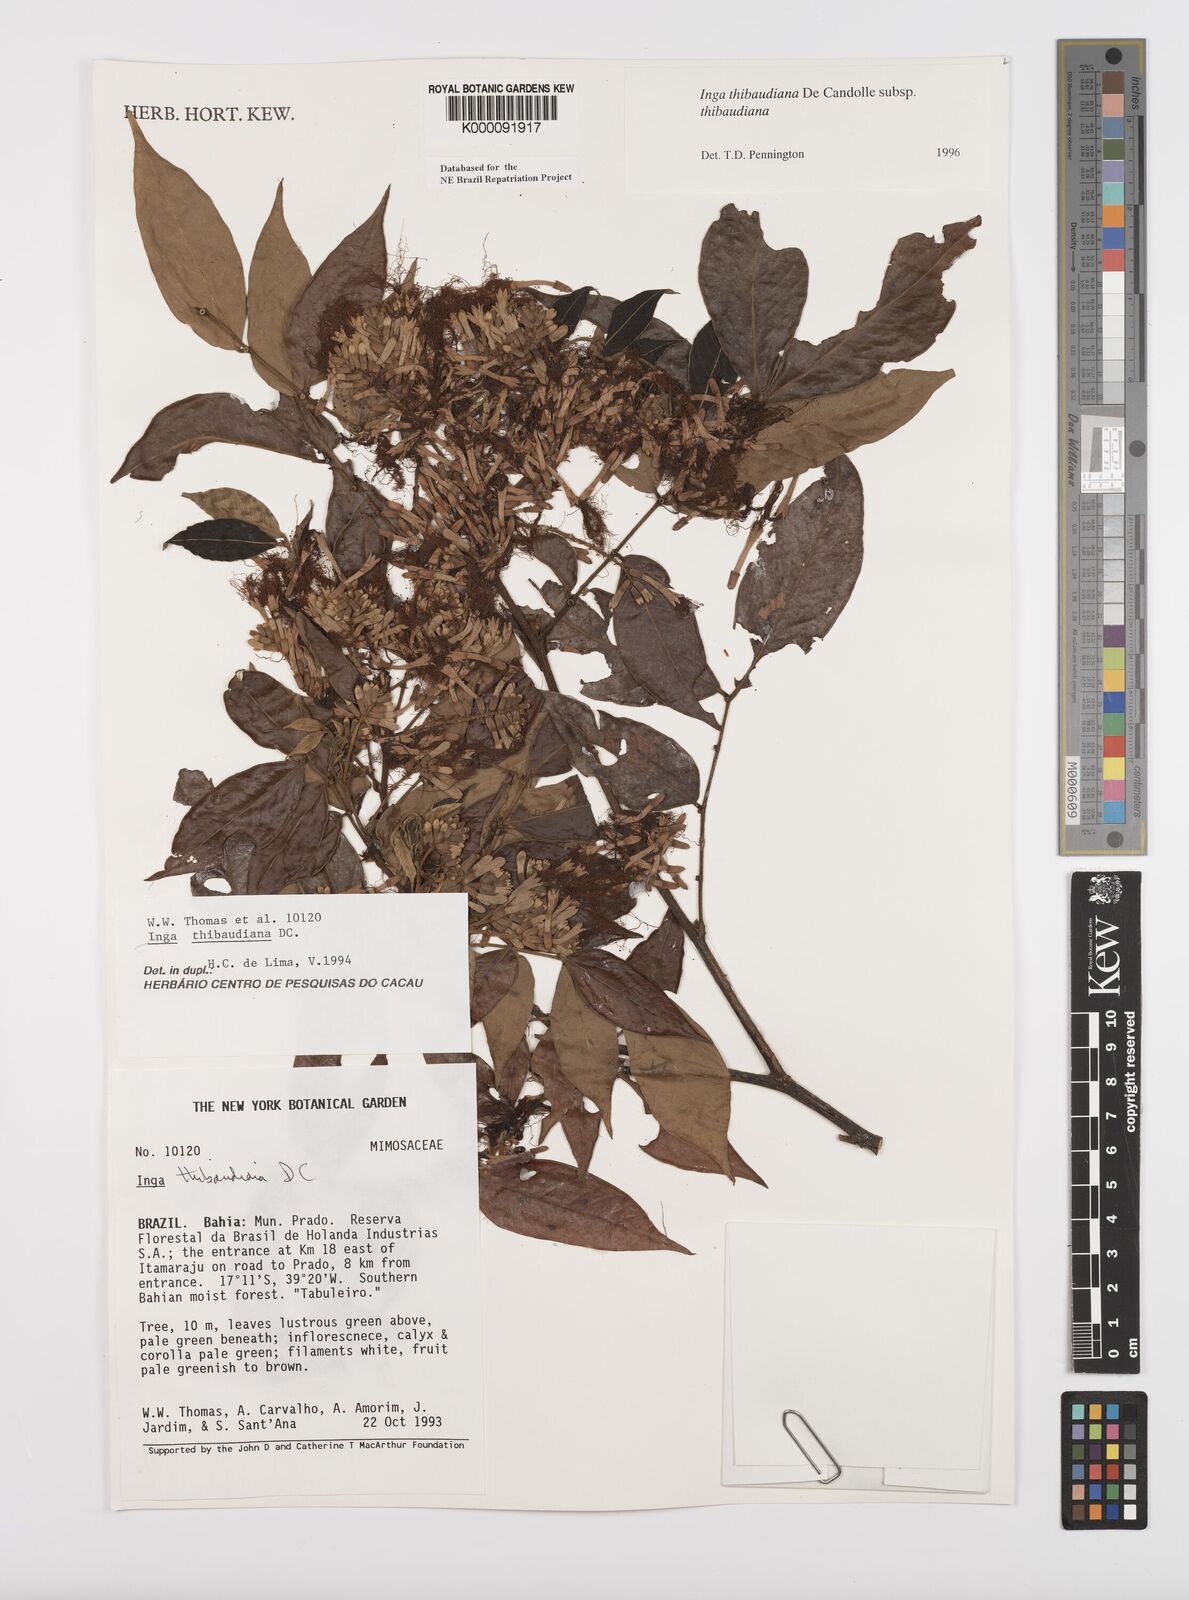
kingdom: Plantae
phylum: Tracheophyta
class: Magnoliopsida
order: Fabales
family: Fabaceae
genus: Inga
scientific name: Inga thibaudiana
